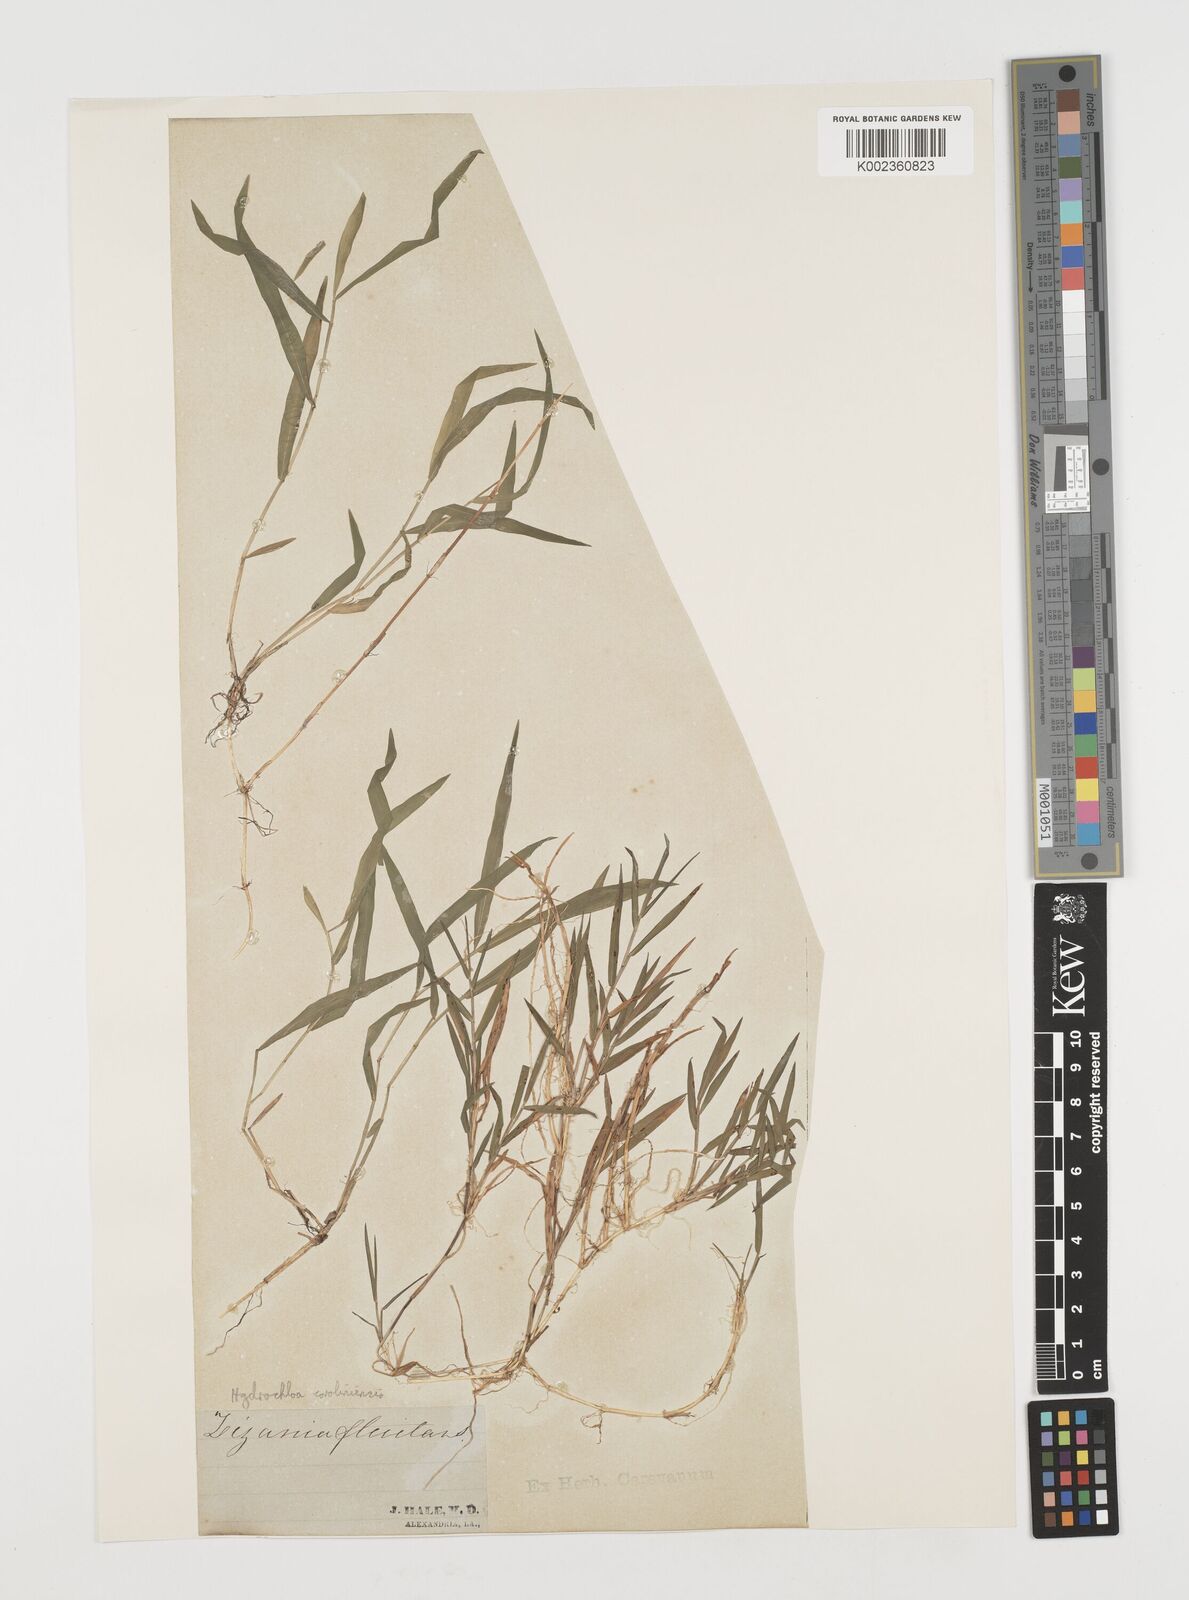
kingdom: Plantae
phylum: Tracheophyta
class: Liliopsida
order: Poales
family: Poaceae
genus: Luziola
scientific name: Luziola fluitans
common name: Silverleaf grass
